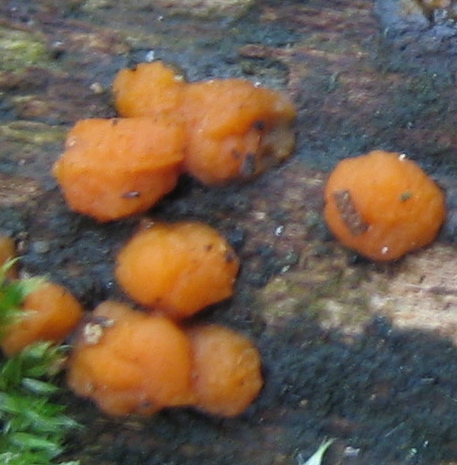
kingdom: Fungi
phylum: Basidiomycota
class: Dacrymycetes
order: Dacrymycetales
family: Dacrymycetaceae
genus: Dacrymyces
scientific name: Dacrymyces stillatus
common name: almindelig tåresvamp
